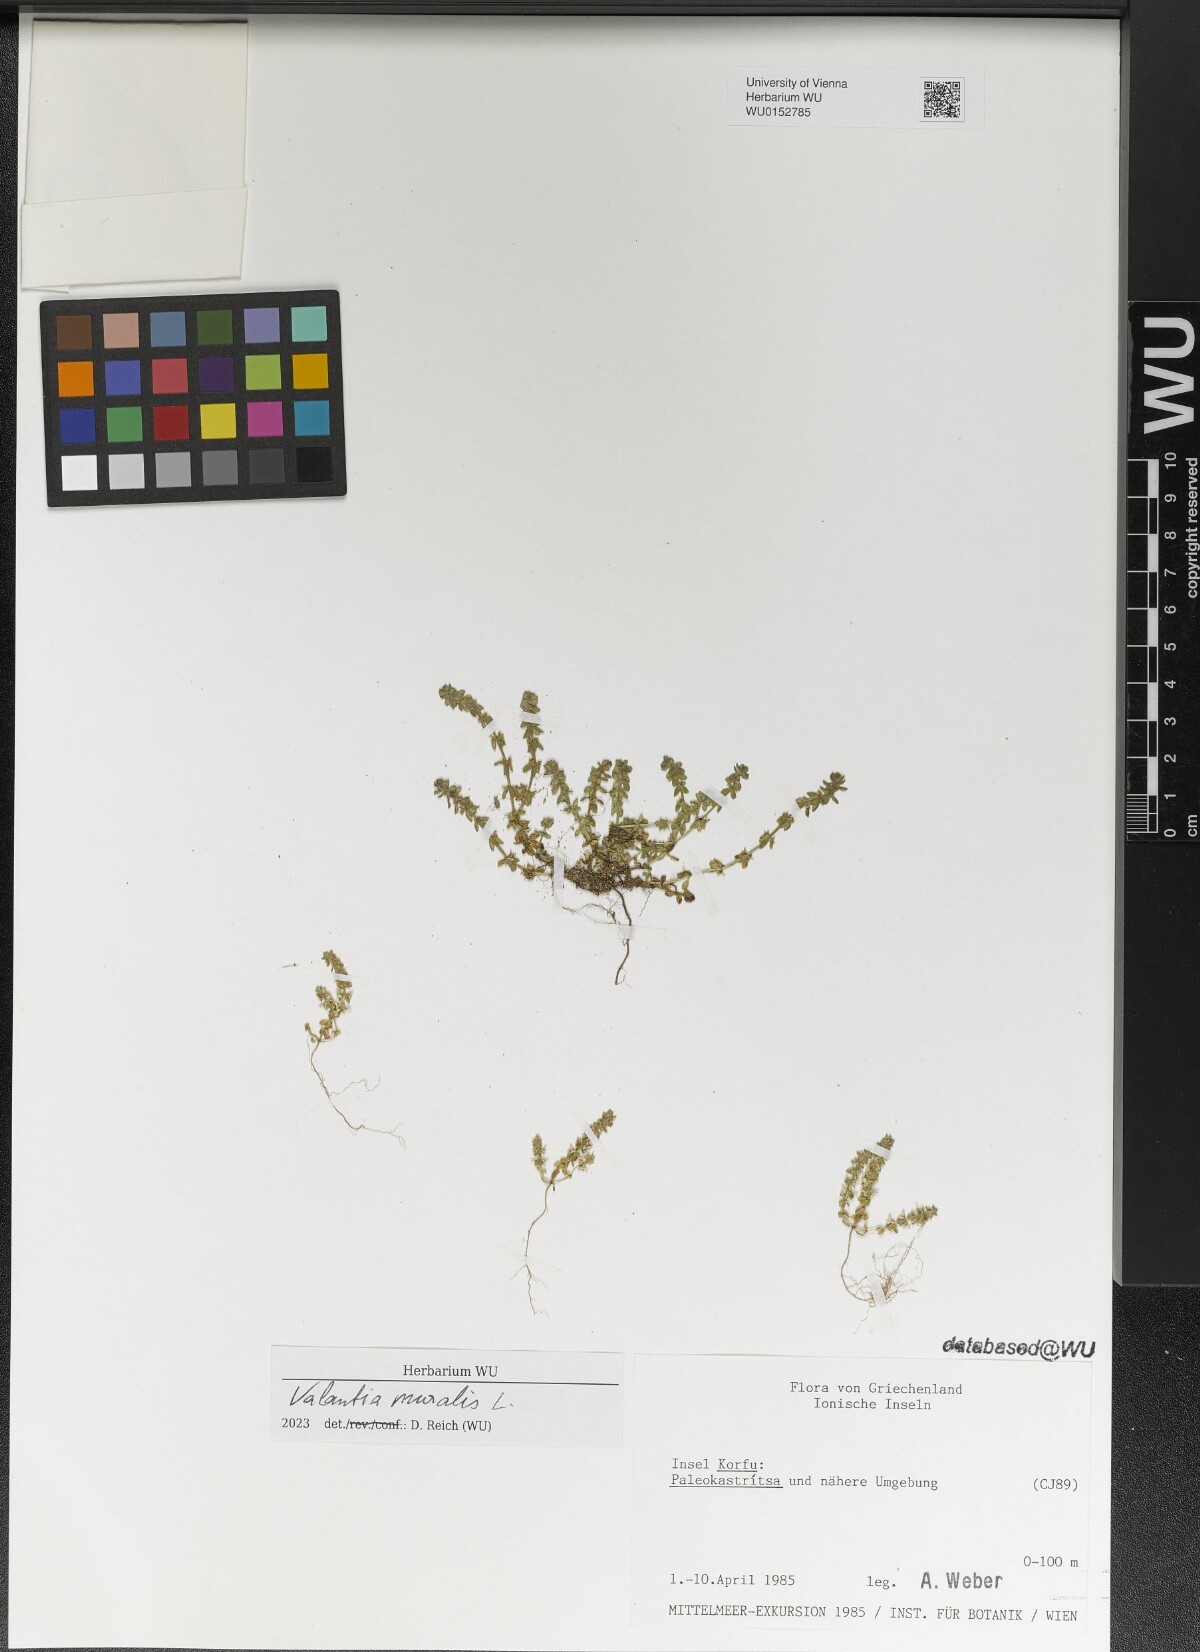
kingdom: Plantae
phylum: Tracheophyta
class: Magnoliopsida
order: Gentianales
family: Rubiaceae
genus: Valantia
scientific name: Valantia muralis
